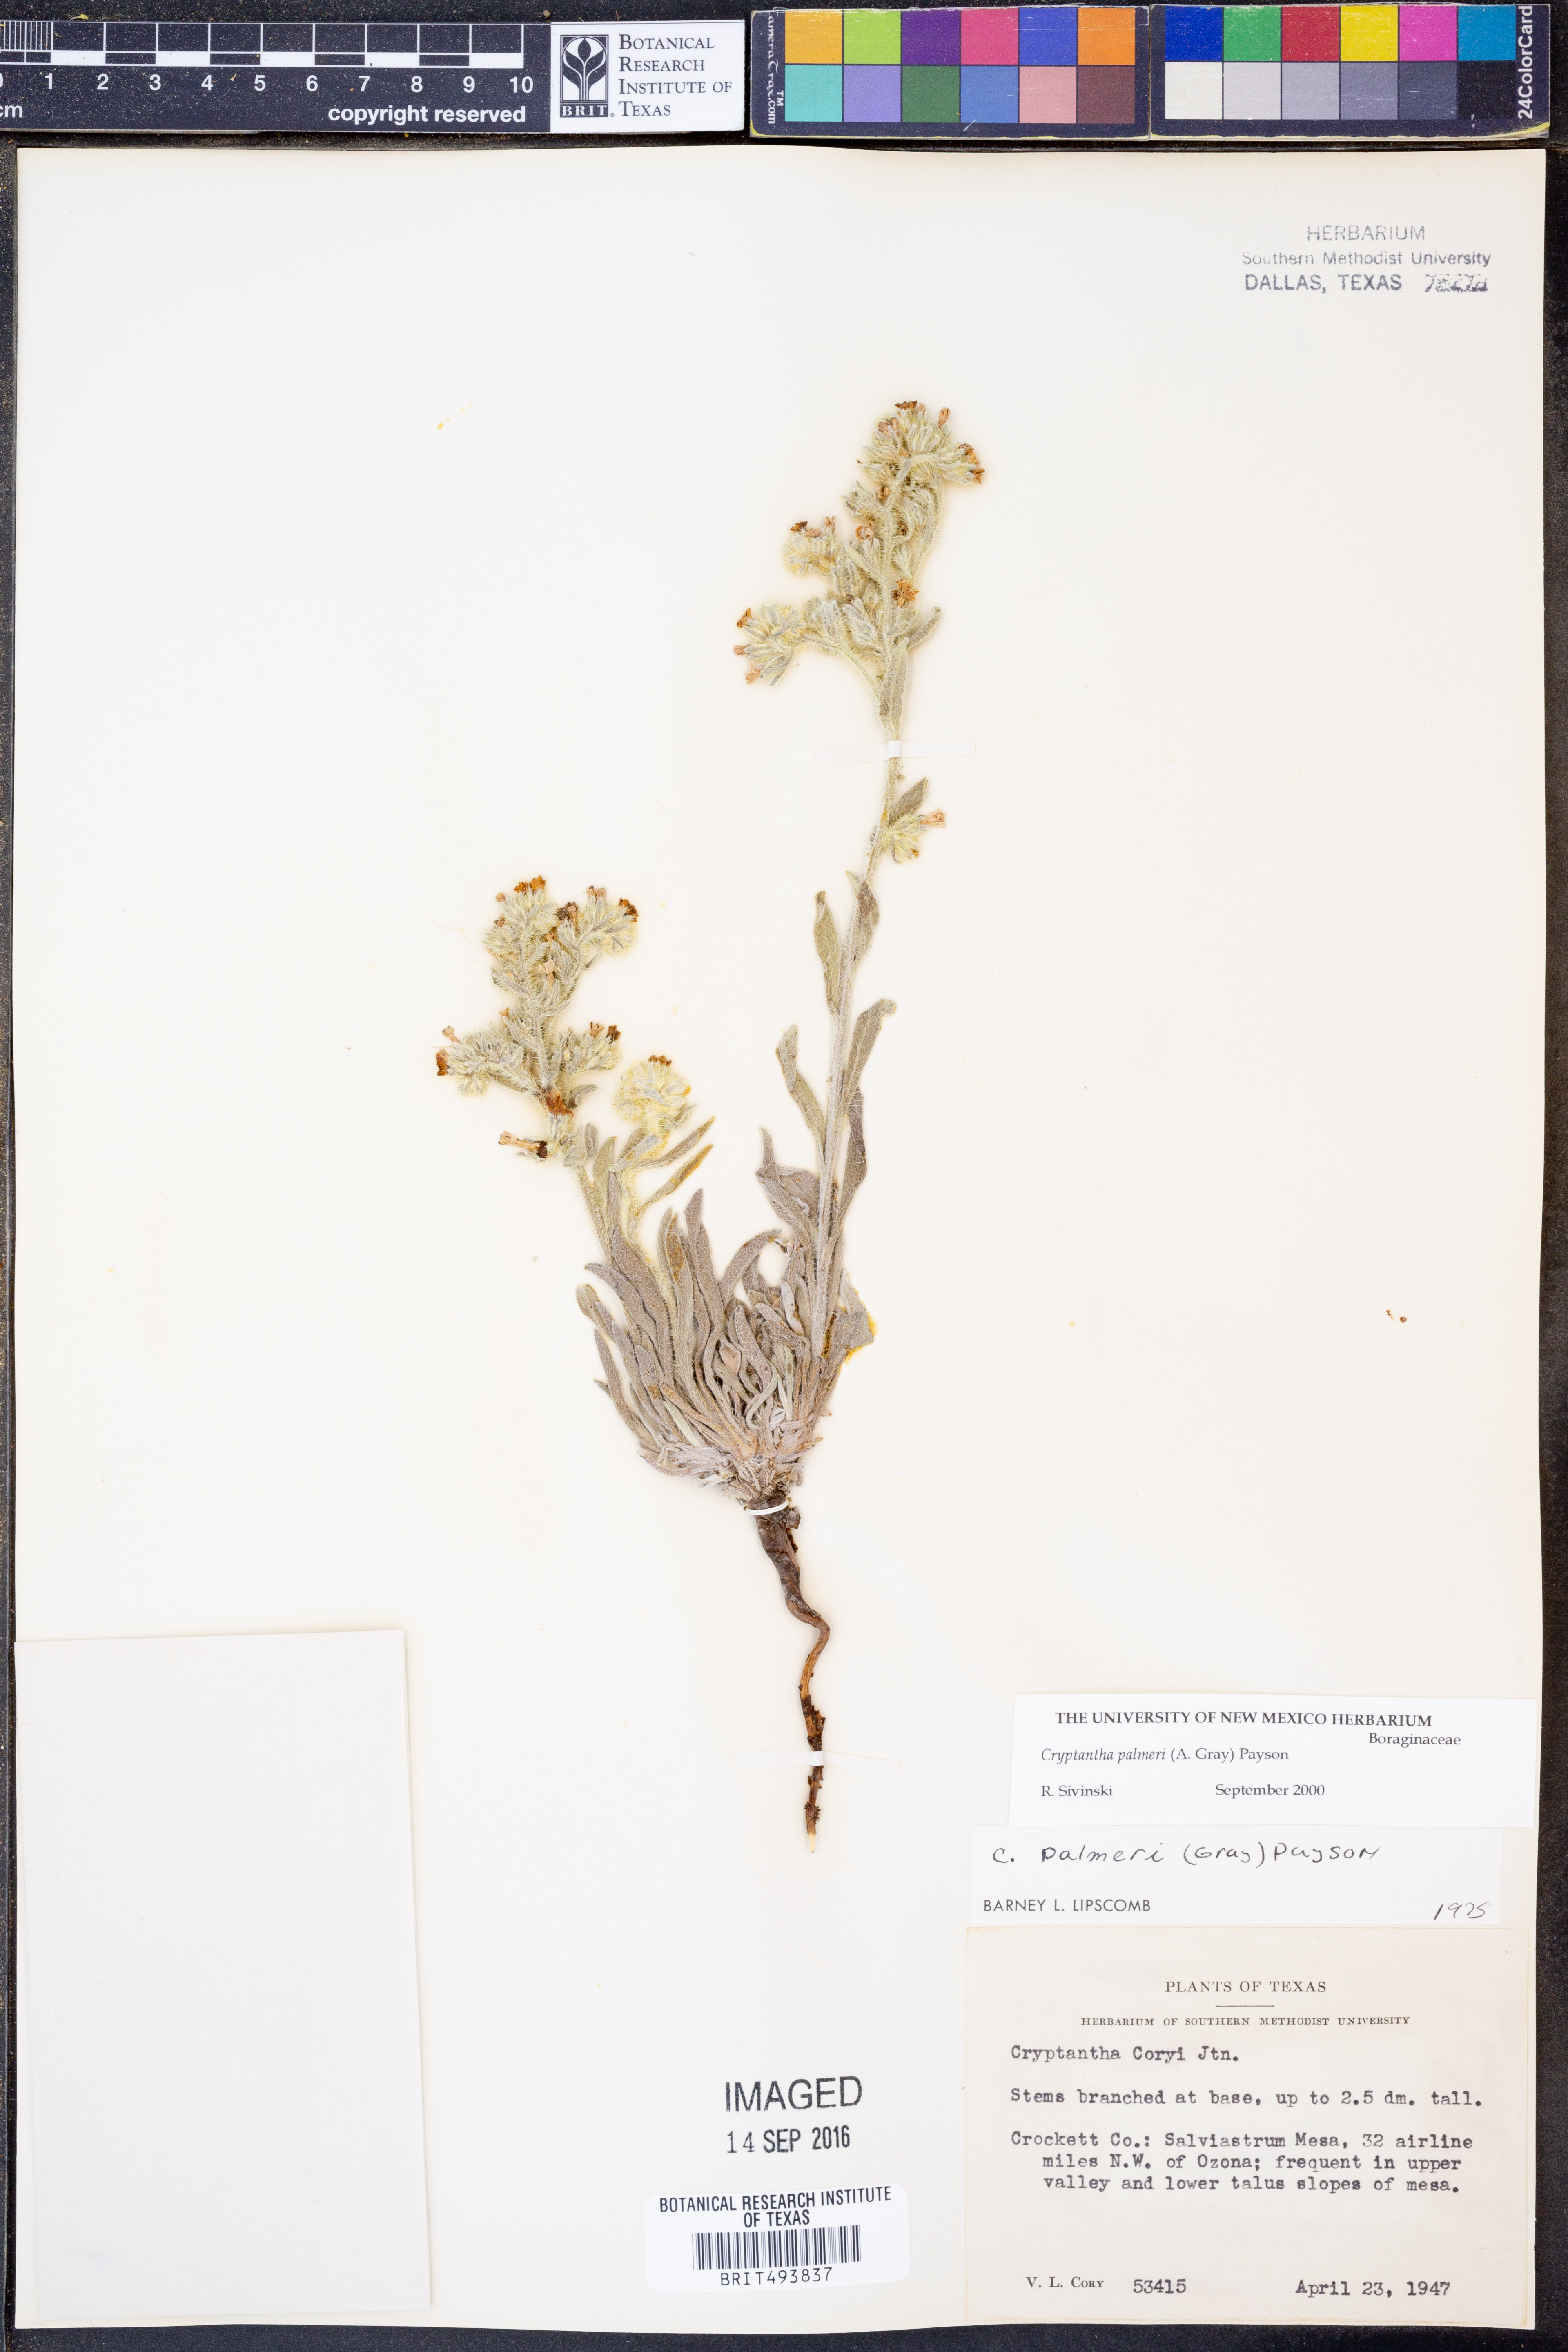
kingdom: Plantae
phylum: Tracheophyta
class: Magnoliopsida
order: Boraginales
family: Boraginaceae
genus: Oreocarya
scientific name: Oreocarya palmeri
